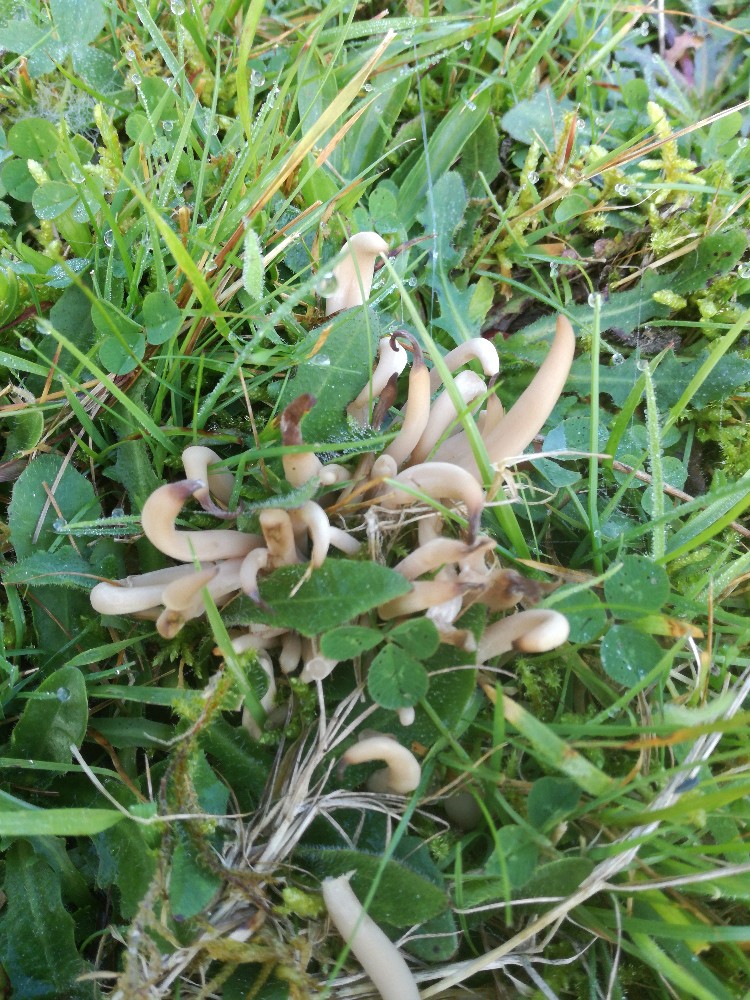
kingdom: Fungi
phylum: Basidiomycota
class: Agaricomycetes
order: Agaricales
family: Clavariaceae
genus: Clavaria
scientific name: Clavaria fumosa
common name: røggrå køllesvamp
